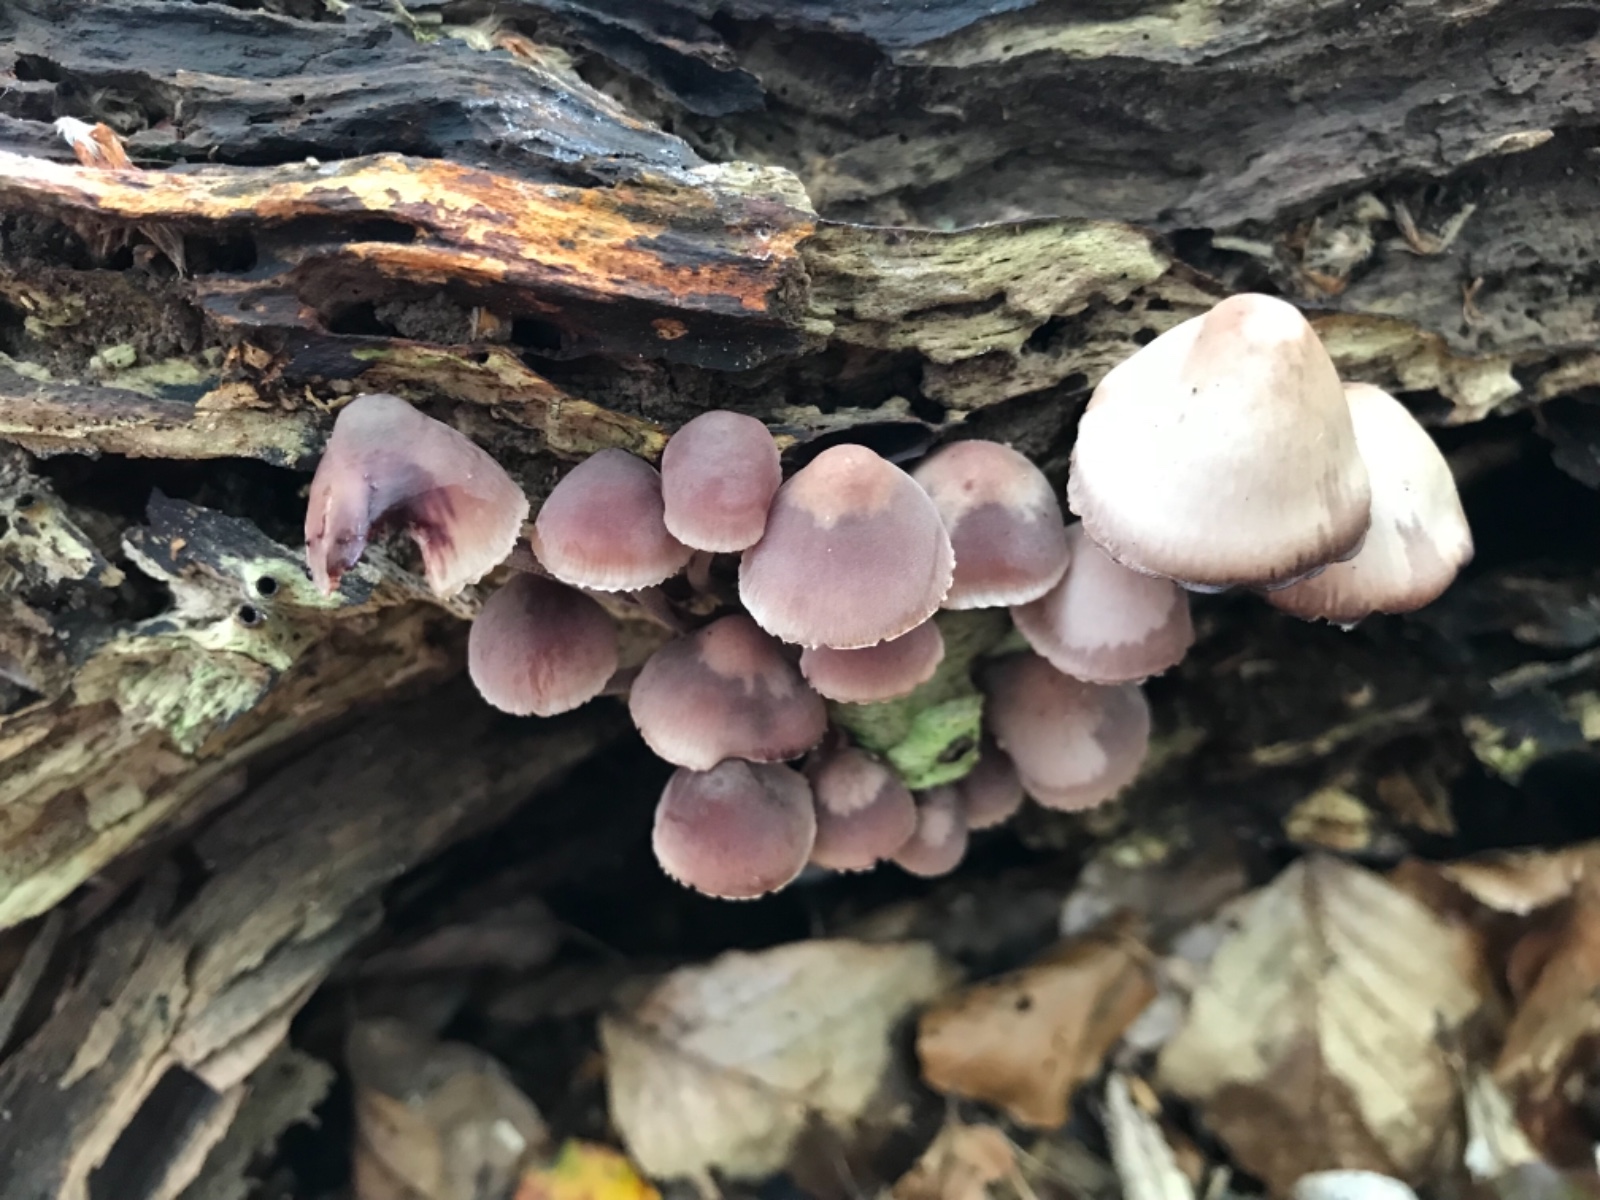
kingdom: Fungi
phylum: Basidiomycota
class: Agaricomycetes
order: Agaricales
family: Mycenaceae
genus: Mycena
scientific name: Mycena haematopus
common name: blødende huesvamp
